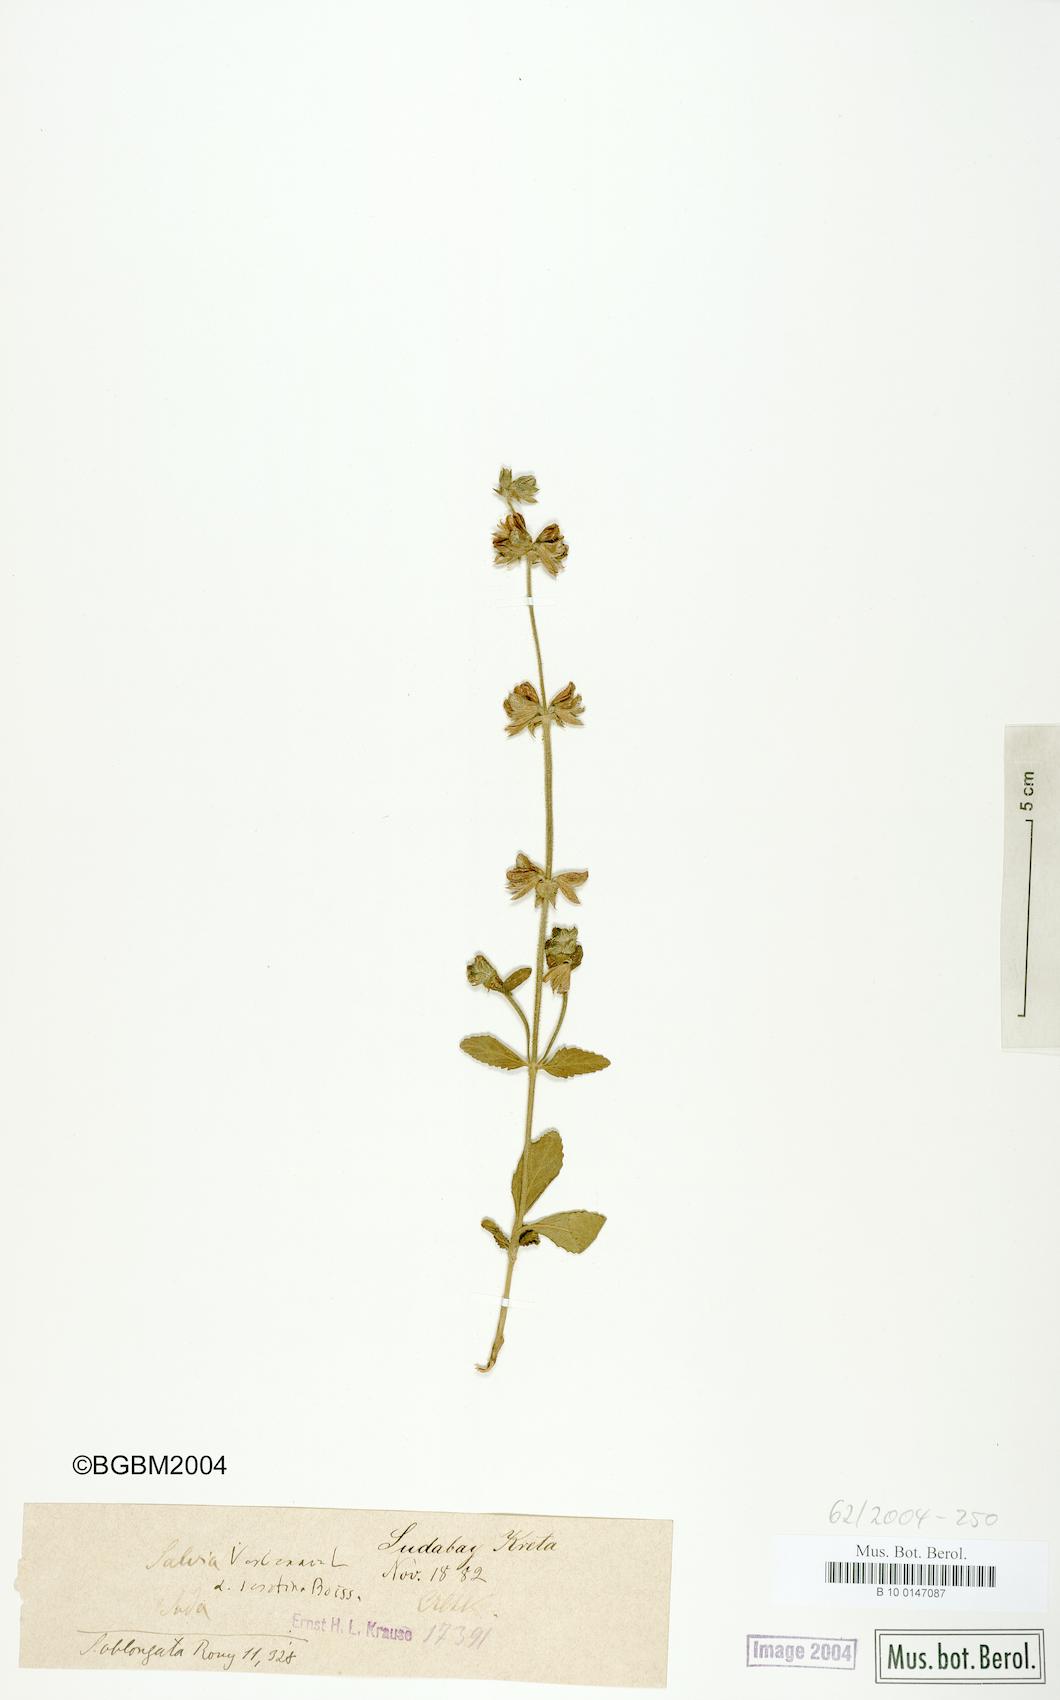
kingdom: Plantae
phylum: Tracheophyta
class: Magnoliopsida
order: Lamiales
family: Lamiaceae
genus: Salvia
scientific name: Salvia verbenaca
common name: Wild clary
